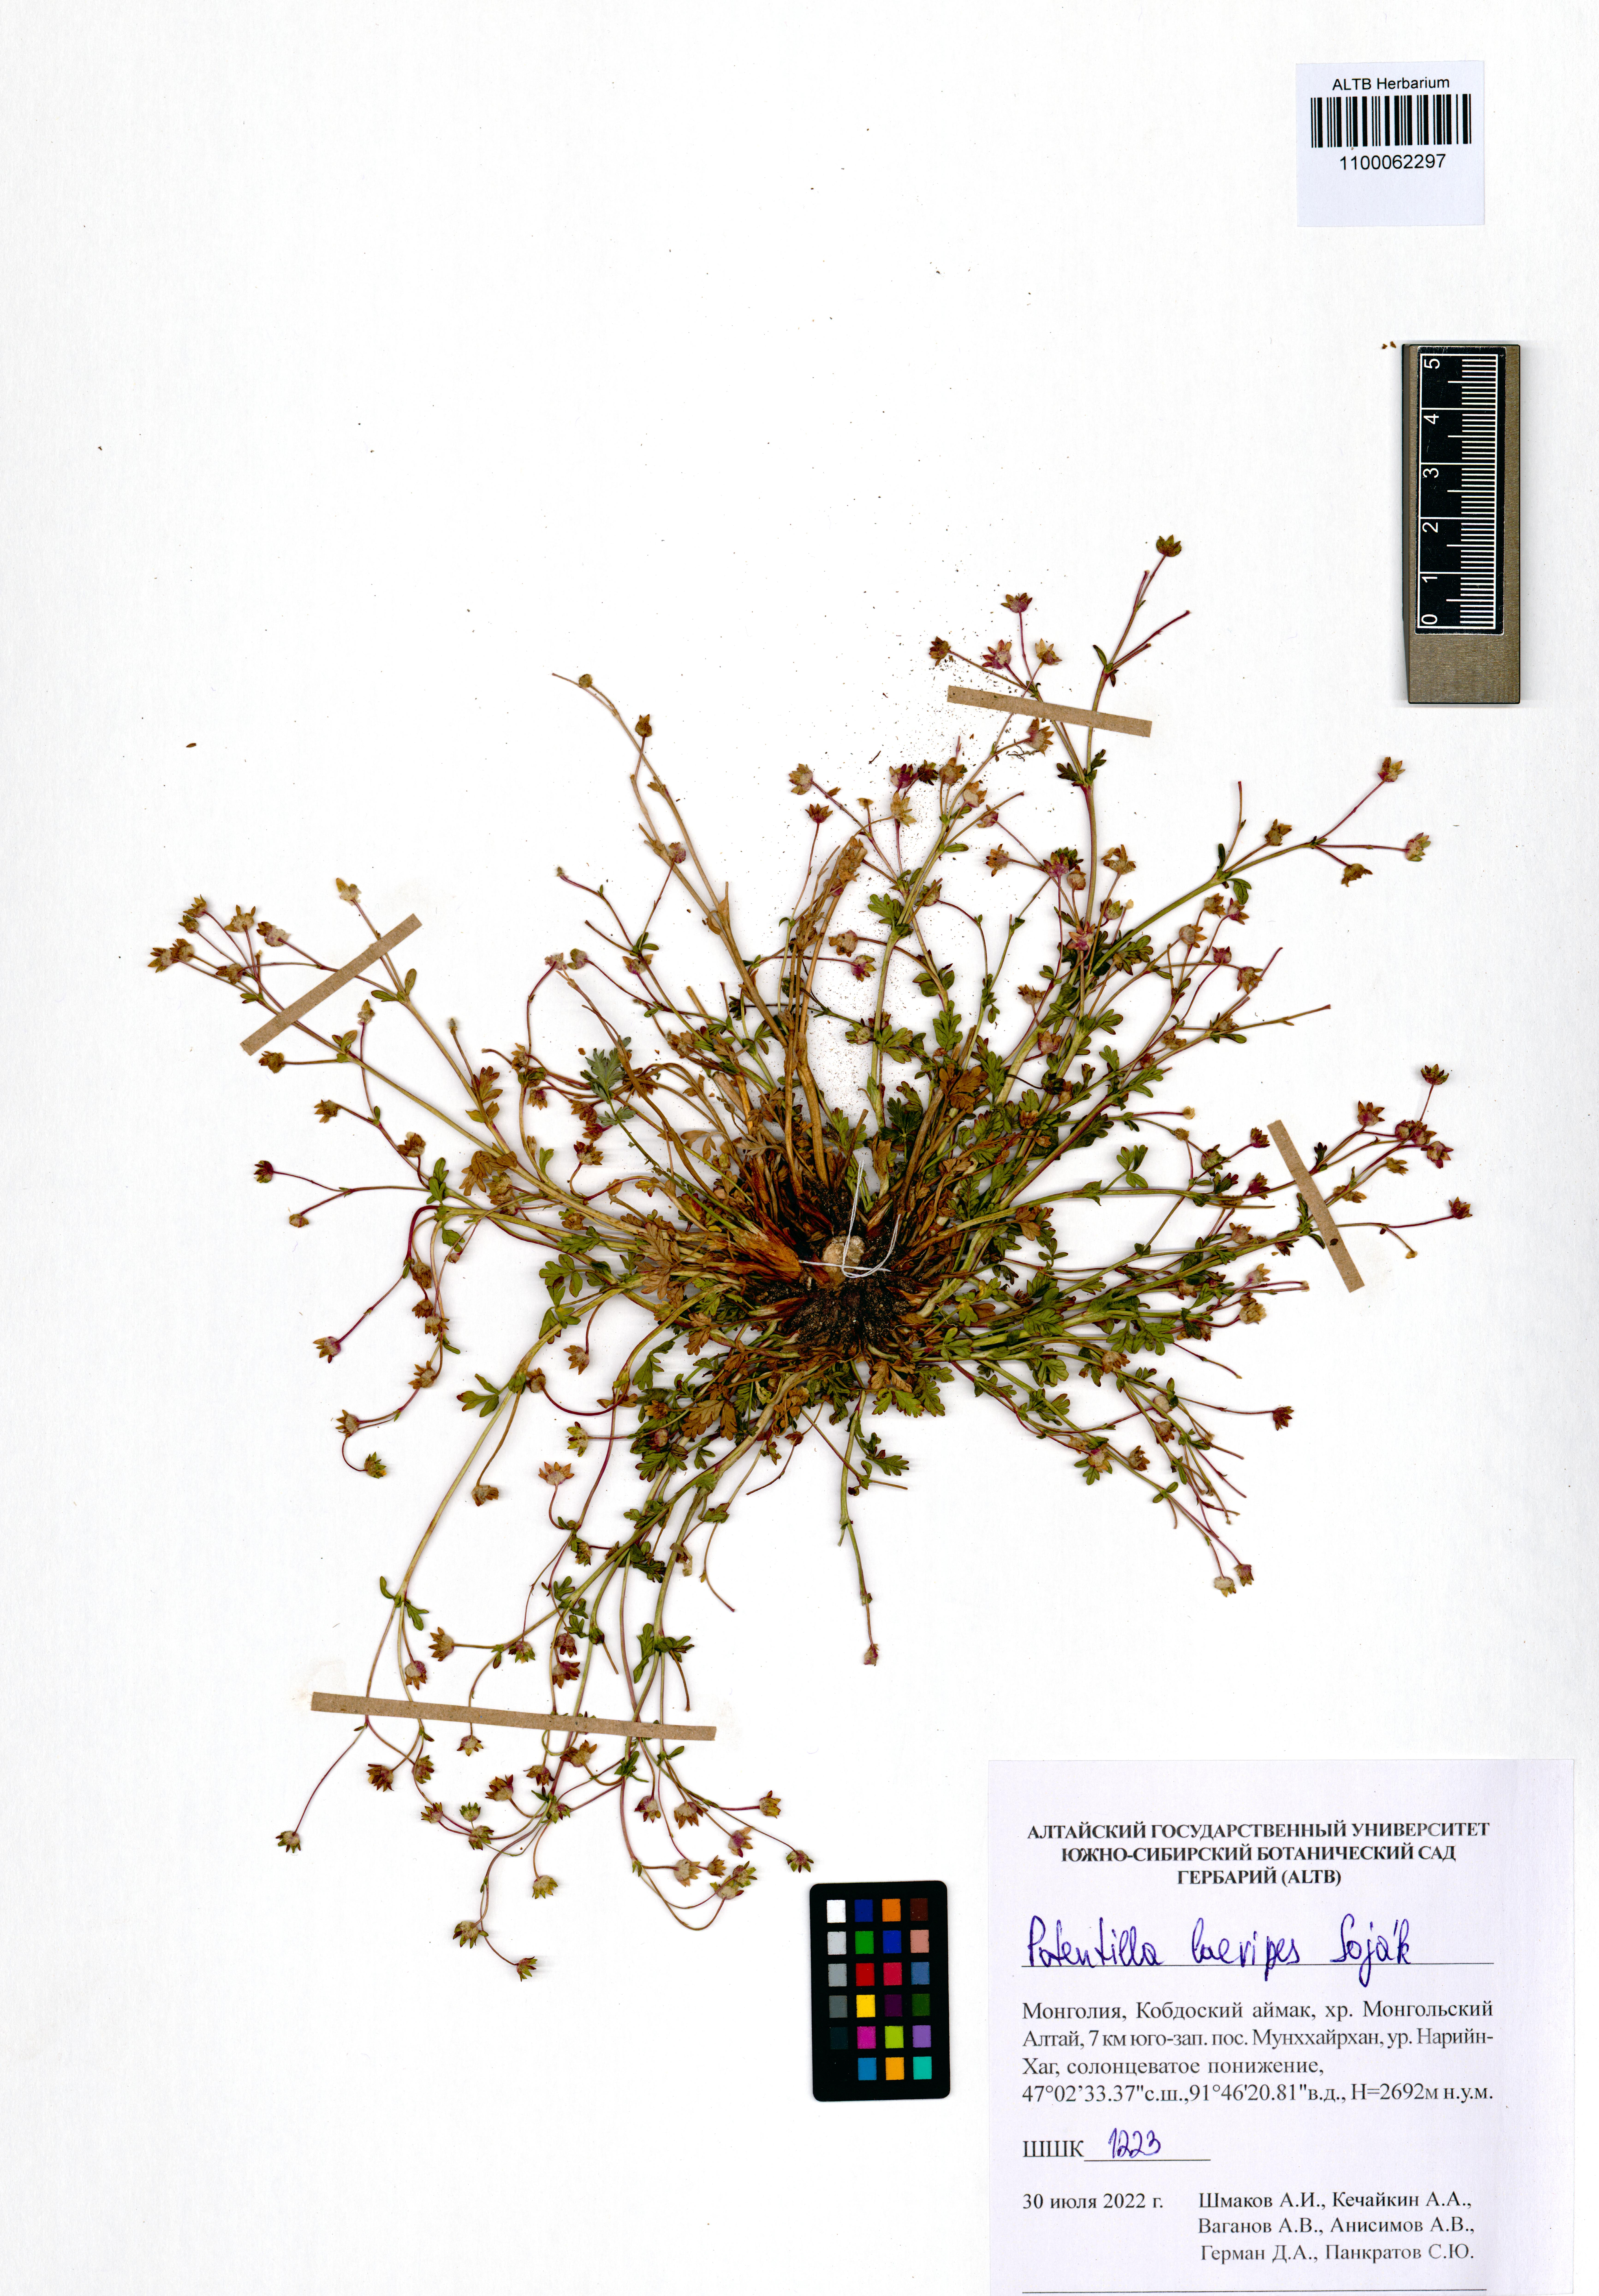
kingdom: Plantae
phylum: Tracheophyta
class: Magnoliopsida
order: Rosales
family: Rosaceae
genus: Potentilla
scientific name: Potentilla laevipes
